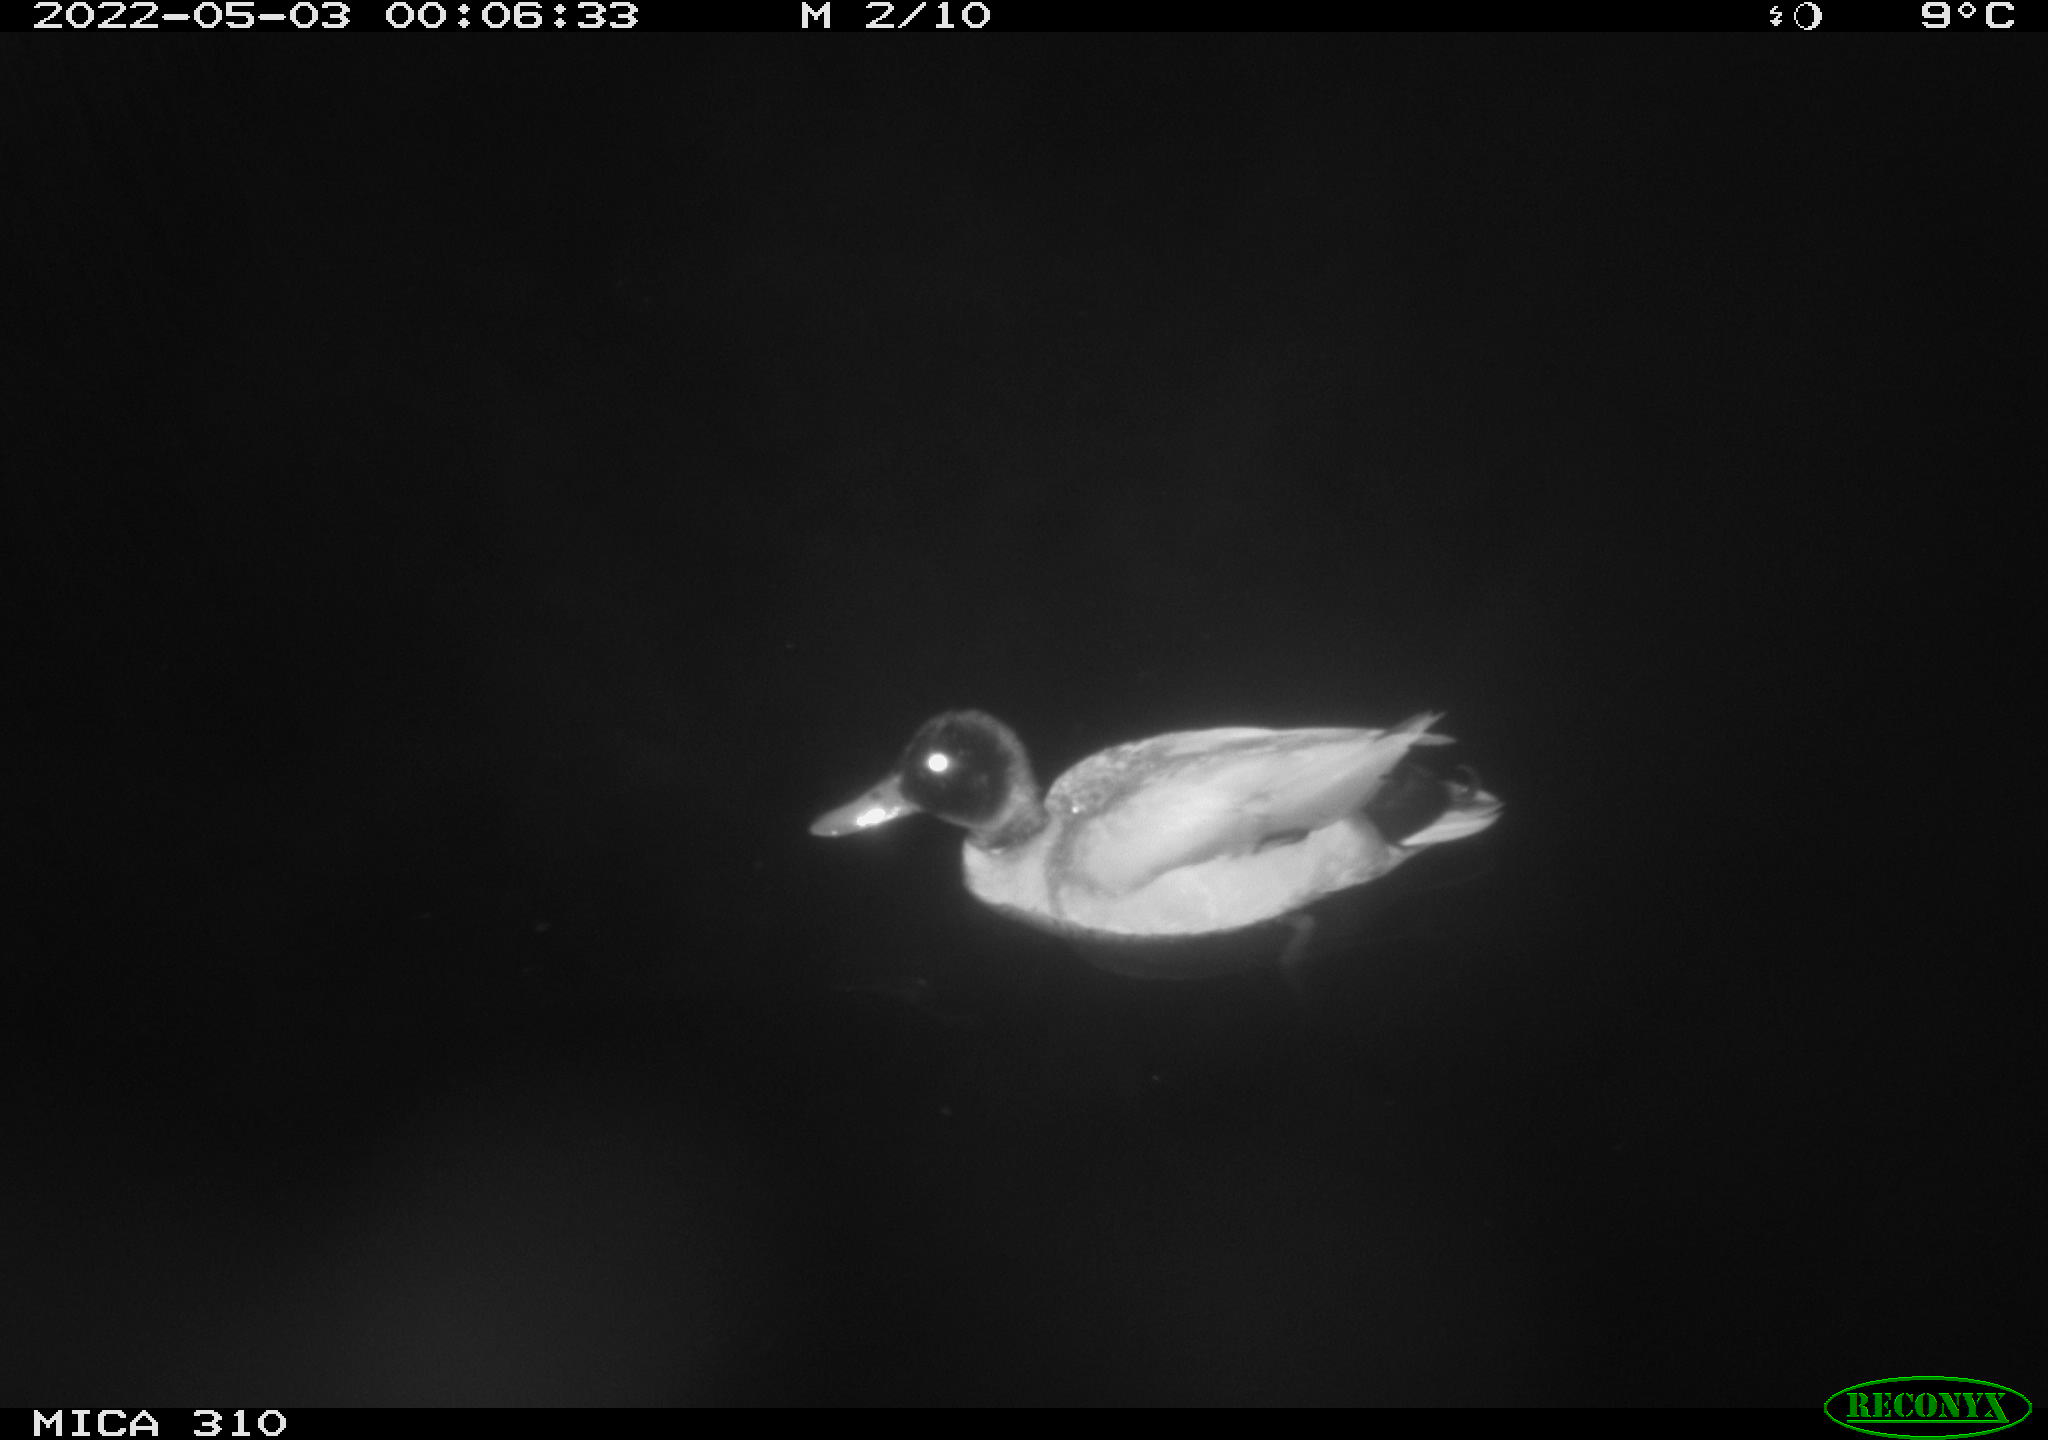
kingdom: Animalia
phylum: Chordata
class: Aves
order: Anseriformes
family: Anatidae
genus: Anas
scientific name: Anas platyrhynchos
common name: Mallard
